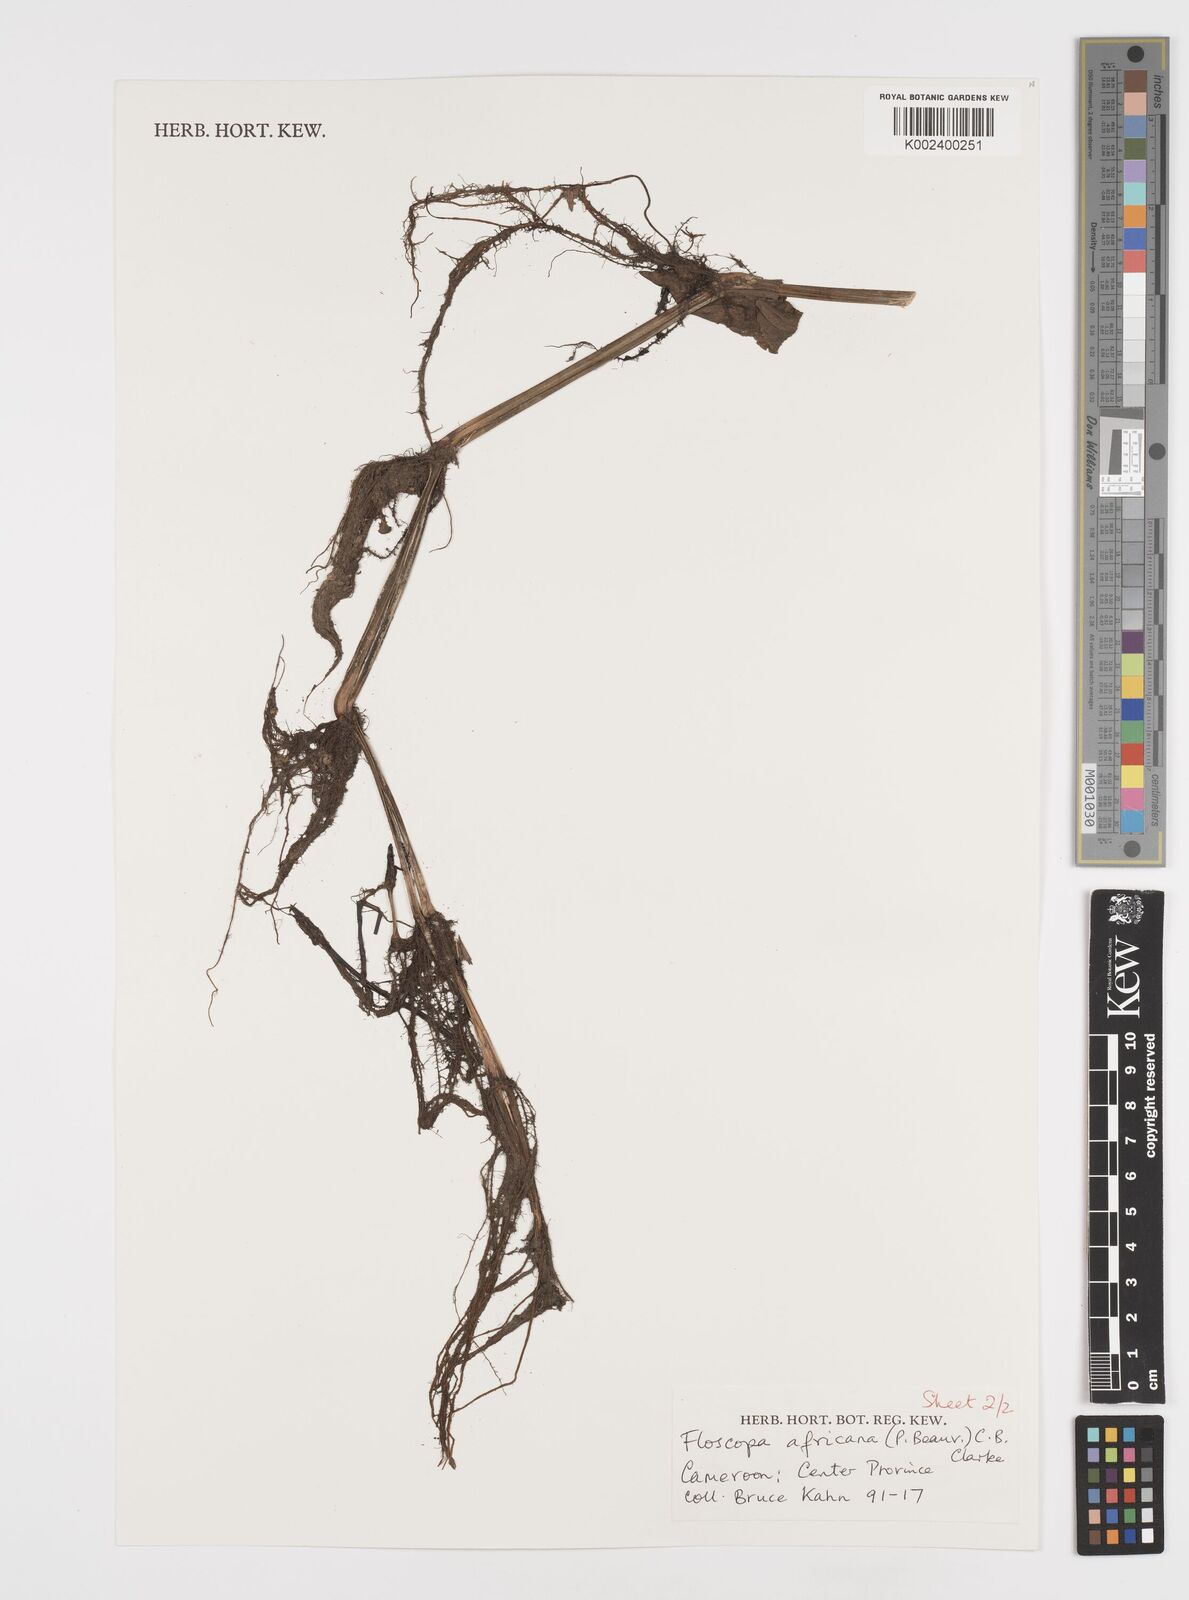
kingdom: Plantae
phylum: Tracheophyta
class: Liliopsida
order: Commelinales
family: Commelinaceae
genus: Floscopa
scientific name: Floscopa africana
